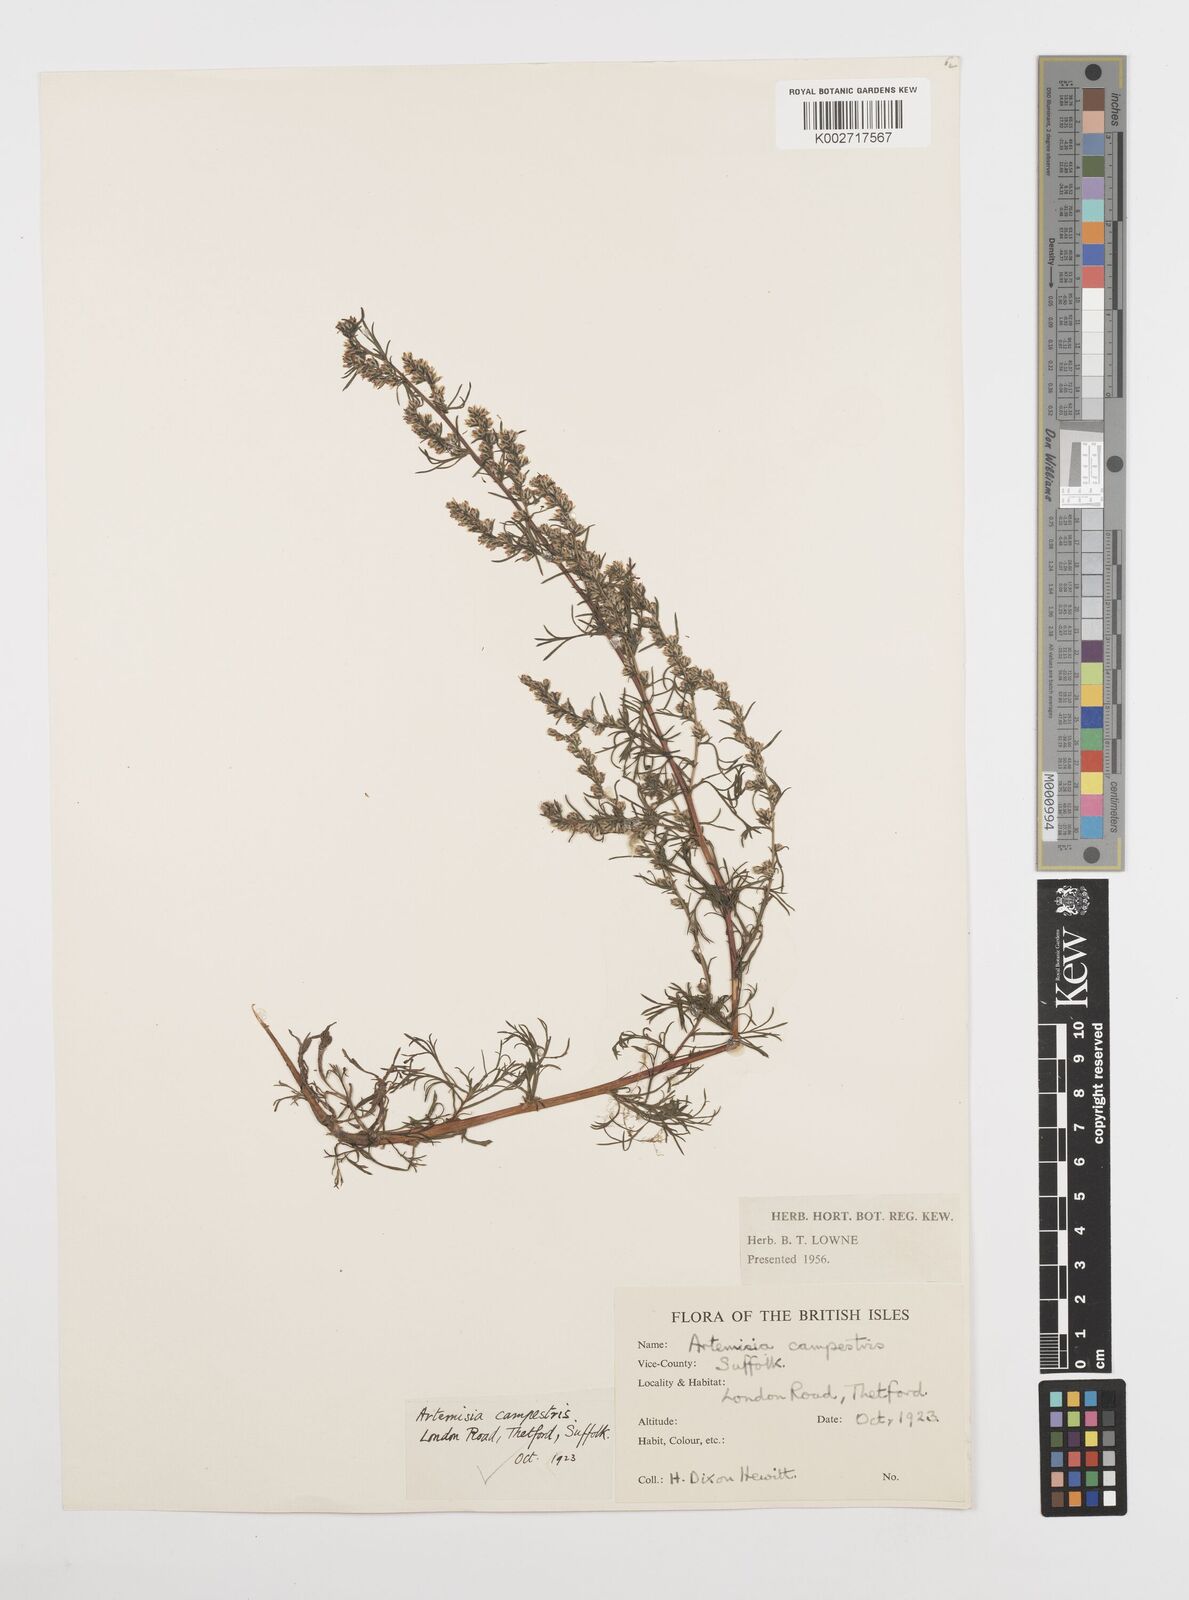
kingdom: Plantae
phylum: Tracheophyta
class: Magnoliopsida
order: Asterales
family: Asteraceae
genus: Artemisia
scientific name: Artemisia campestris
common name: Field wormwood
